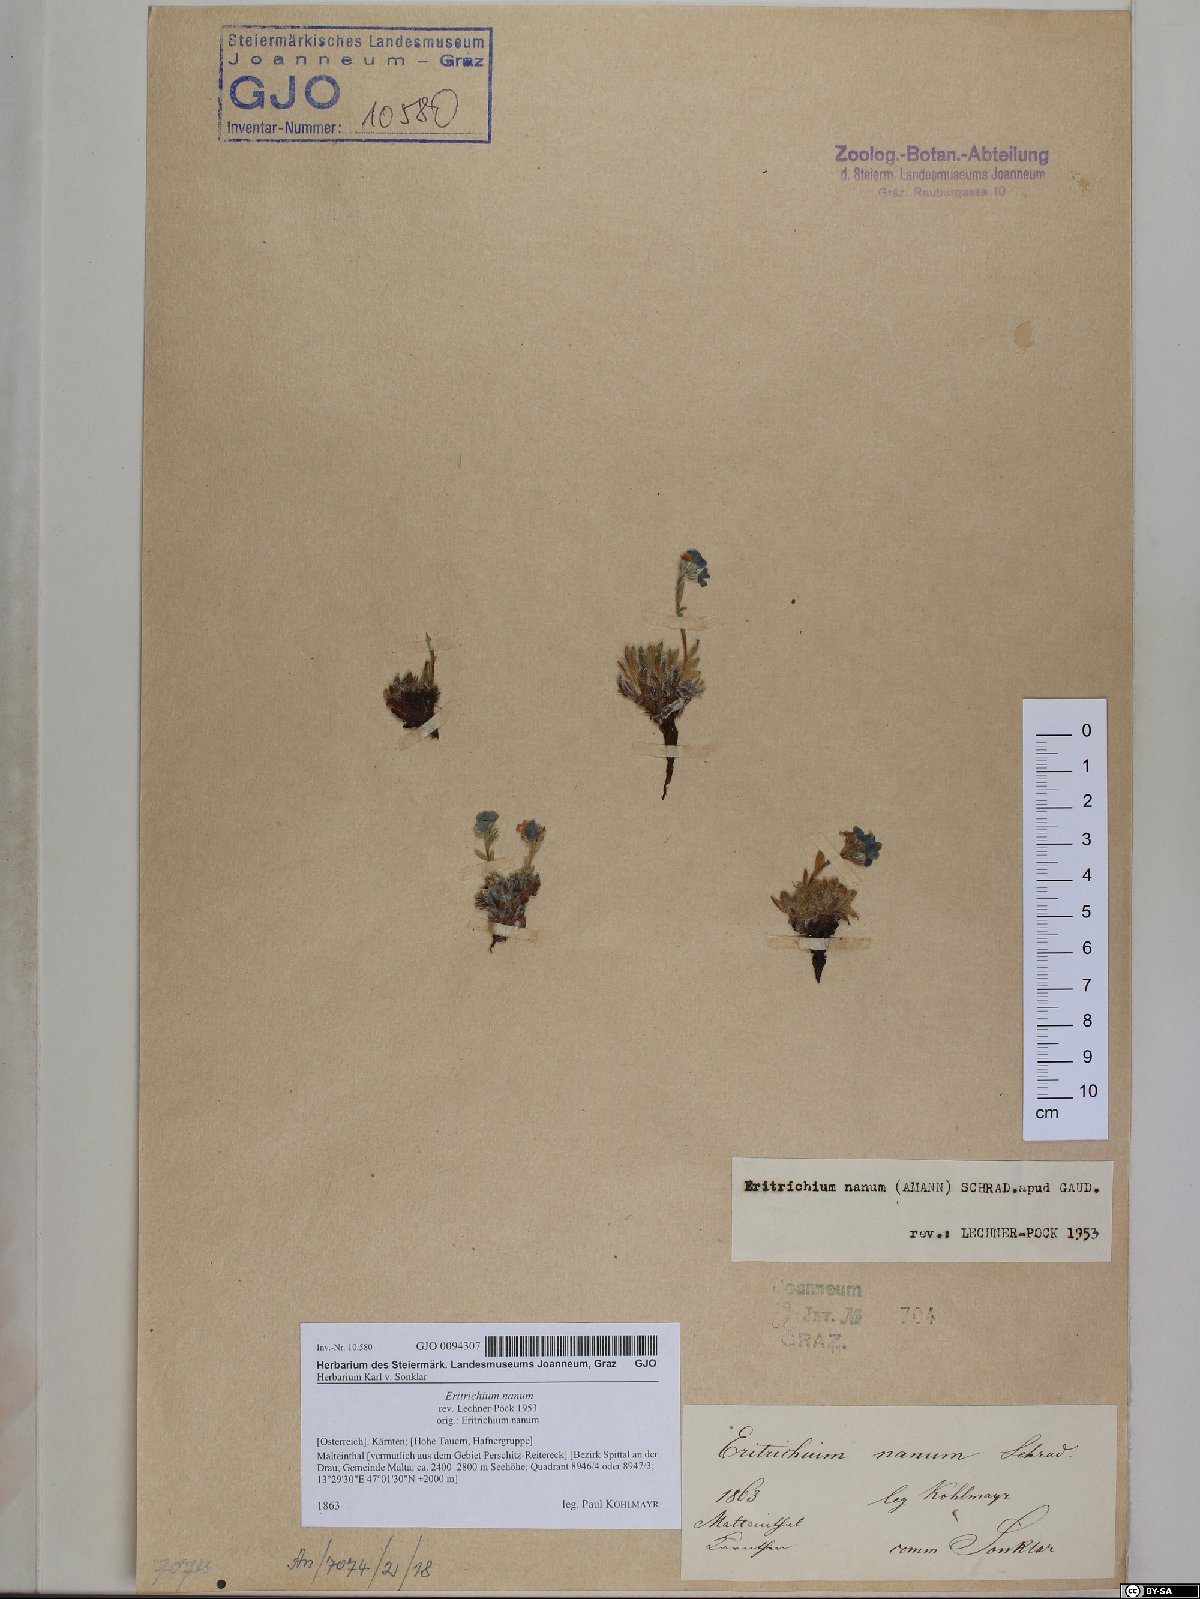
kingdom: Plantae
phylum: Tracheophyta
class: Magnoliopsida
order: Boraginales
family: Boraginaceae
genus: Eritrichium
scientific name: Eritrichium nanum
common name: King-of-the-alps
